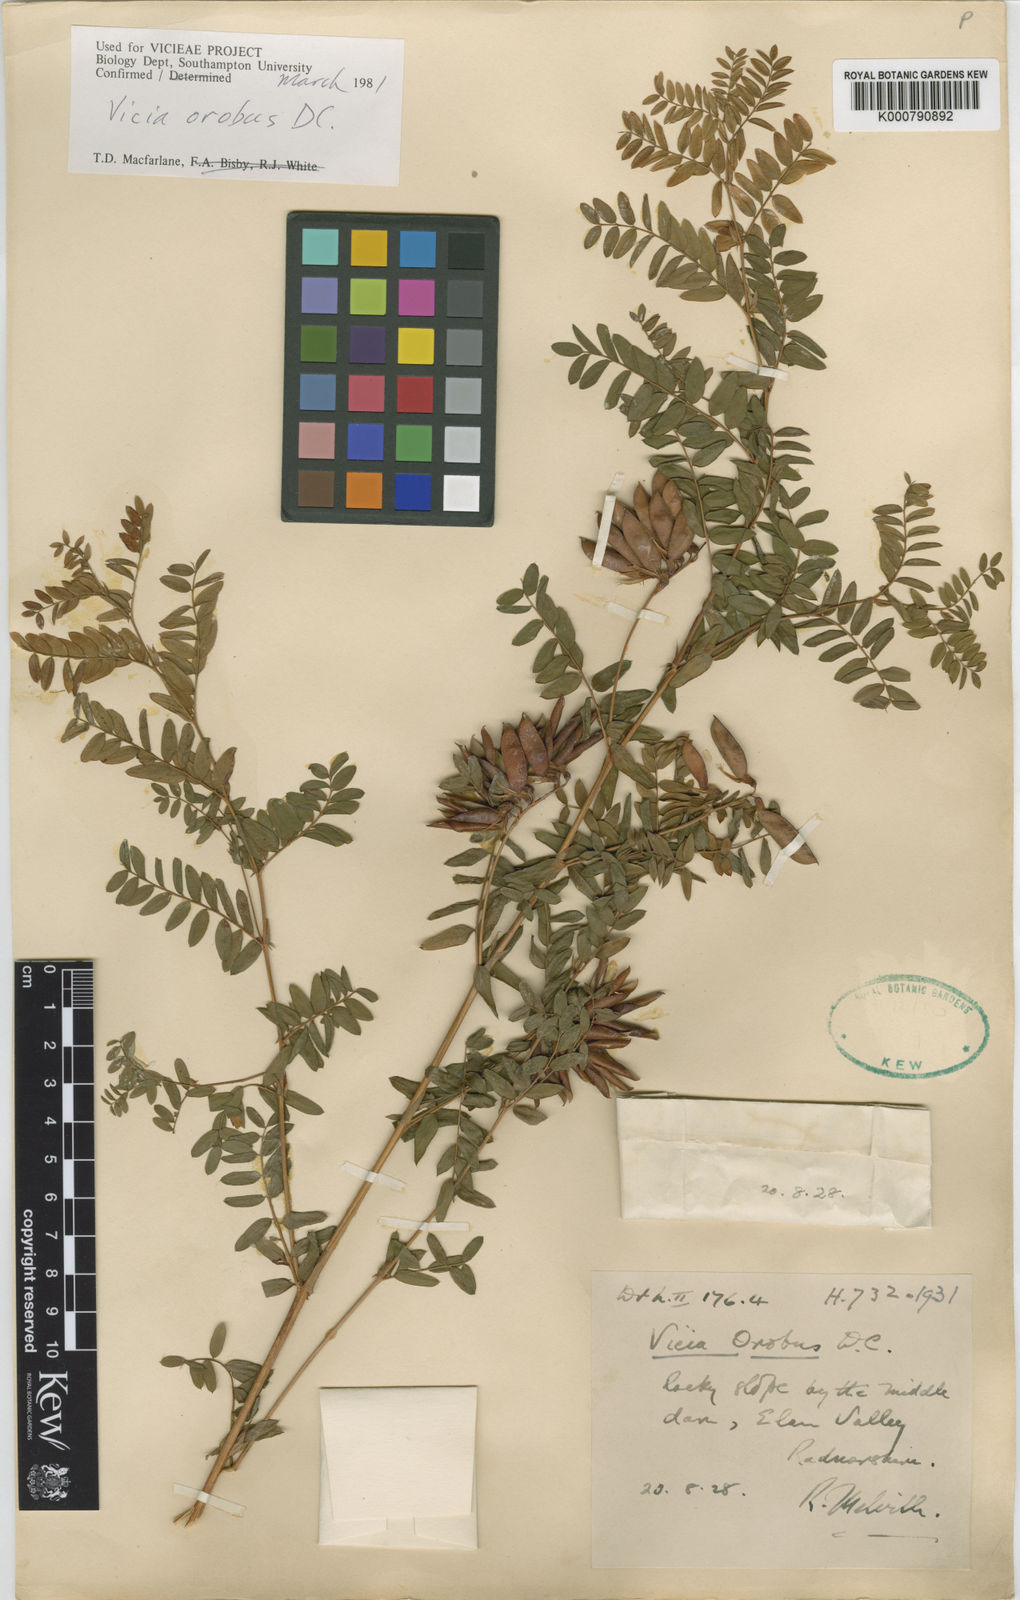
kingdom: Plantae
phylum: Tracheophyta
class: Magnoliopsida
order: Fabales
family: Fabaceae
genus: Vicia
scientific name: Vicia orobus
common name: Wood bitter-vetch
